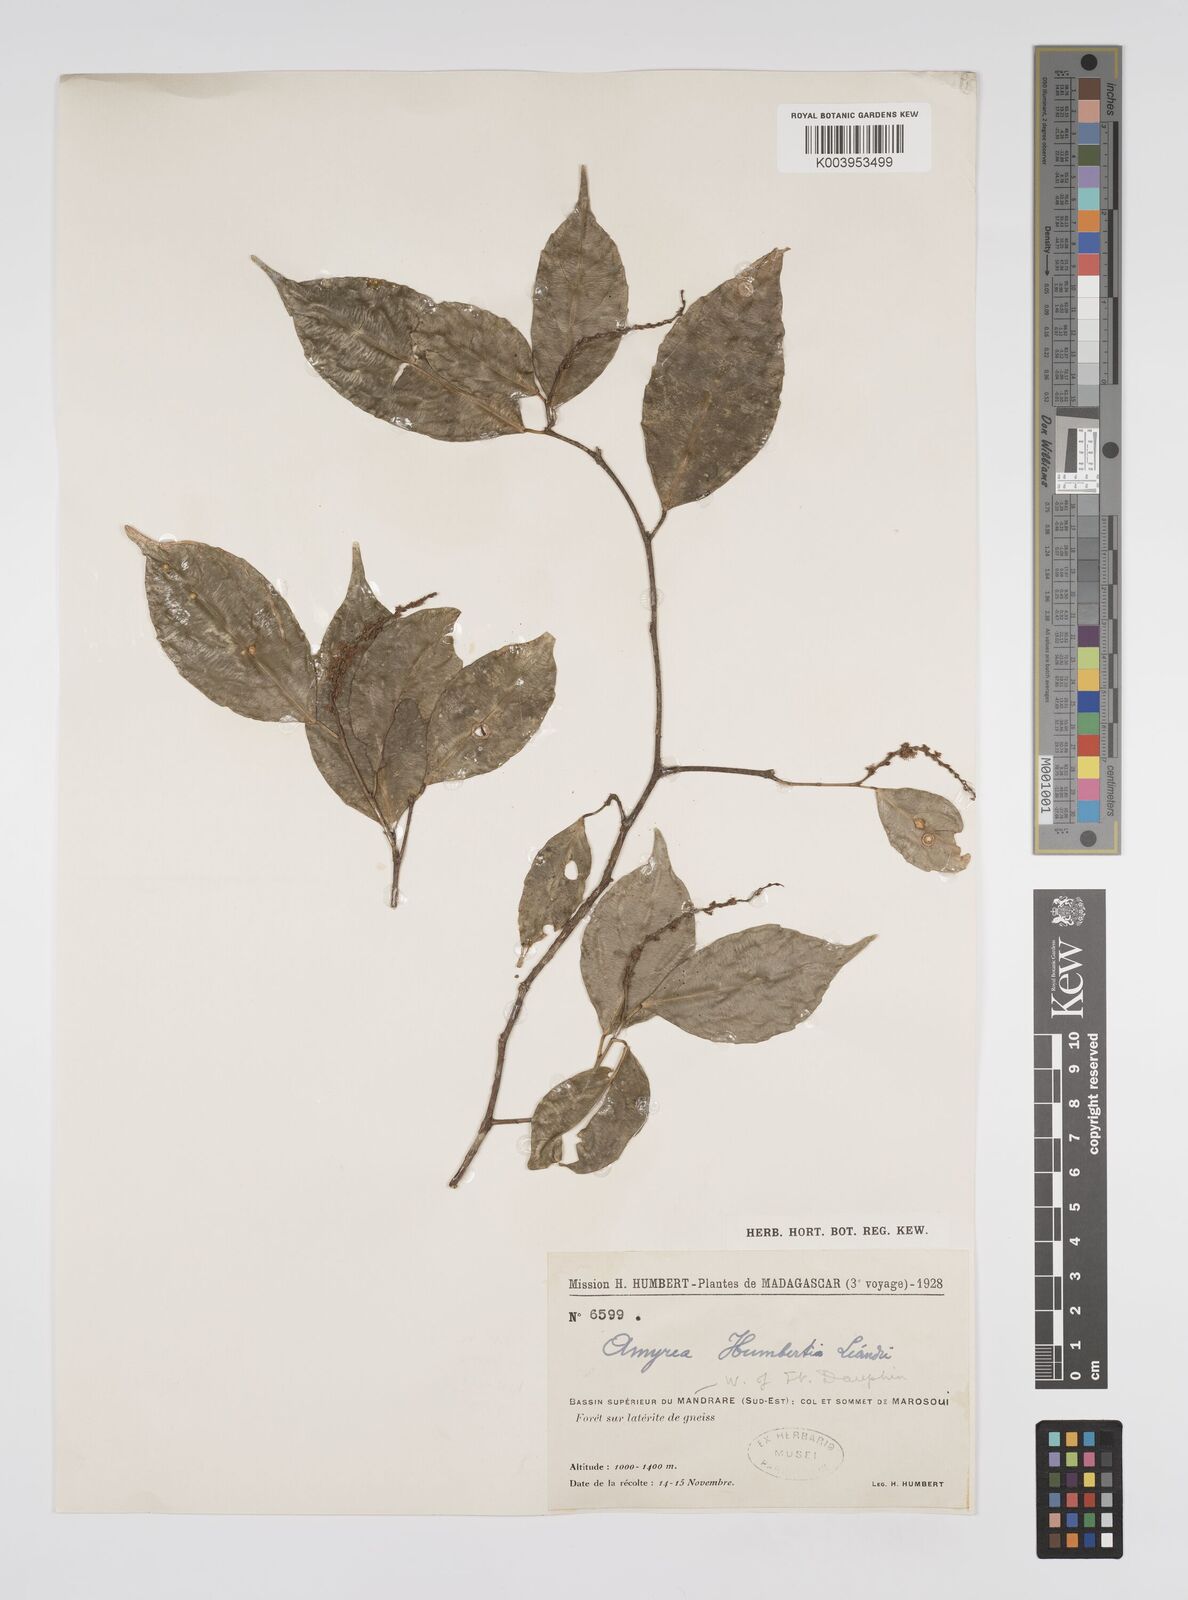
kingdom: Plantae
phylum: Tracheophyta
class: Magnoliopsida
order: Malpighiales
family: Euphorbiaceae
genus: Amyrea
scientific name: Amyrea humbertii
